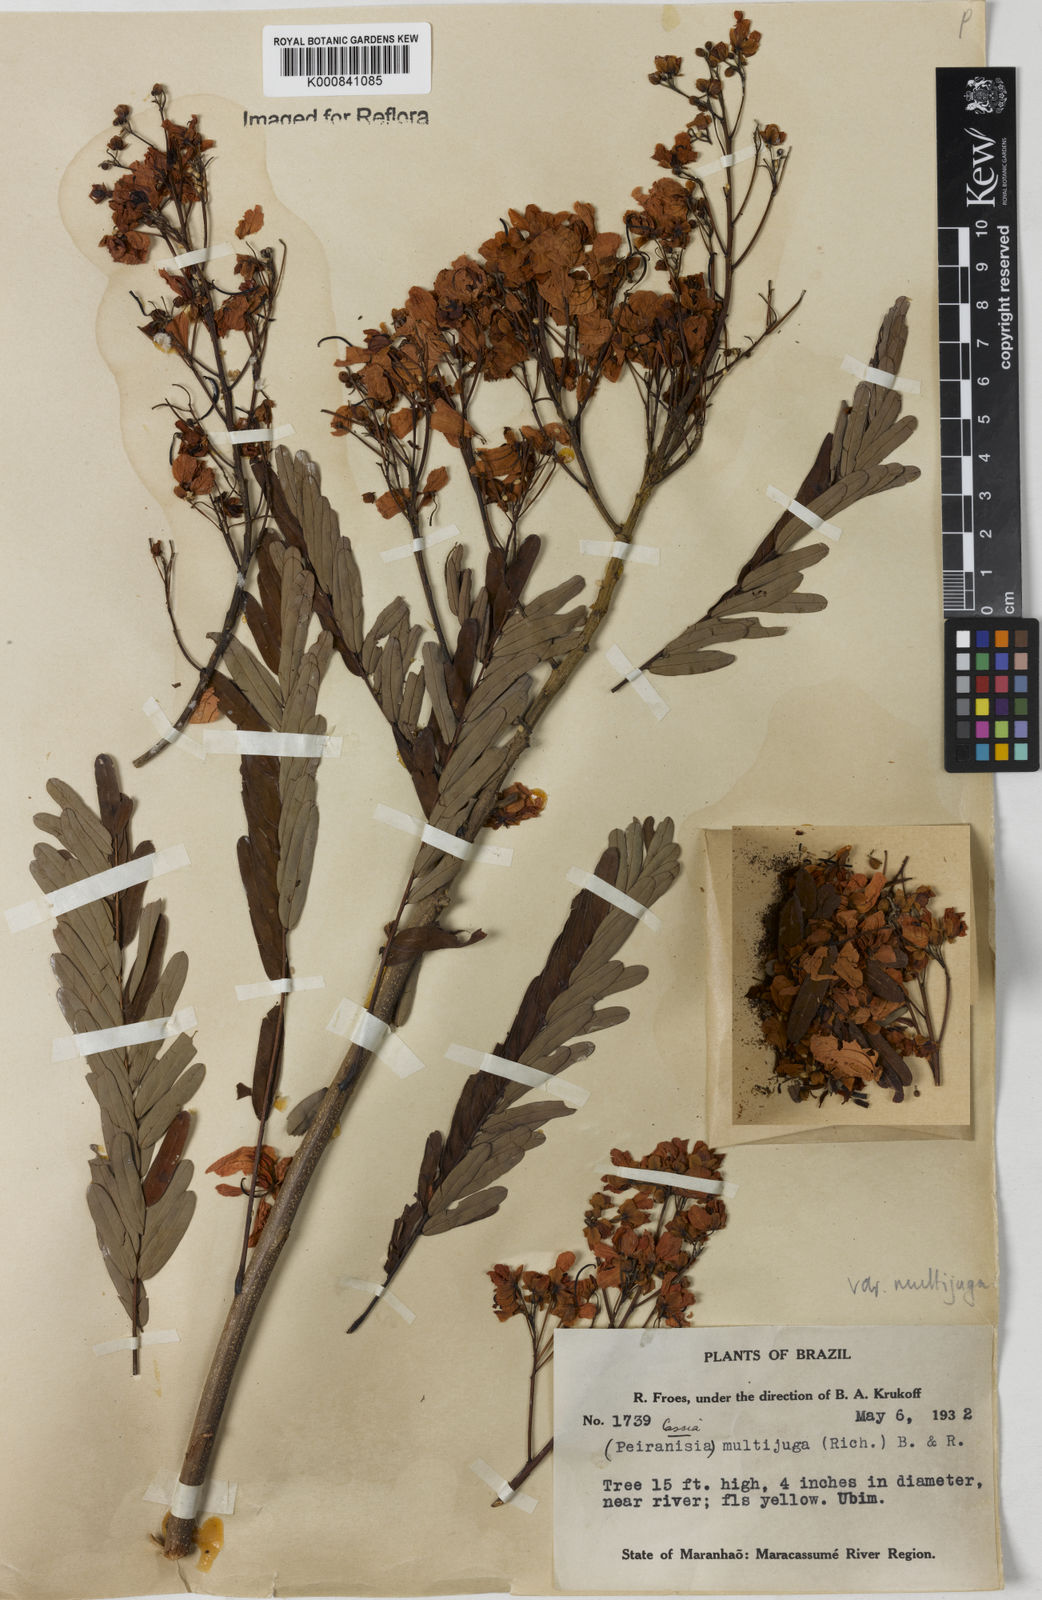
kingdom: Plantae
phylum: Tracheophyta
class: Magnoliopsida
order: Fabales
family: Fabaceae
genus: Senna
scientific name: Senna multijuga
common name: False sicklepod
